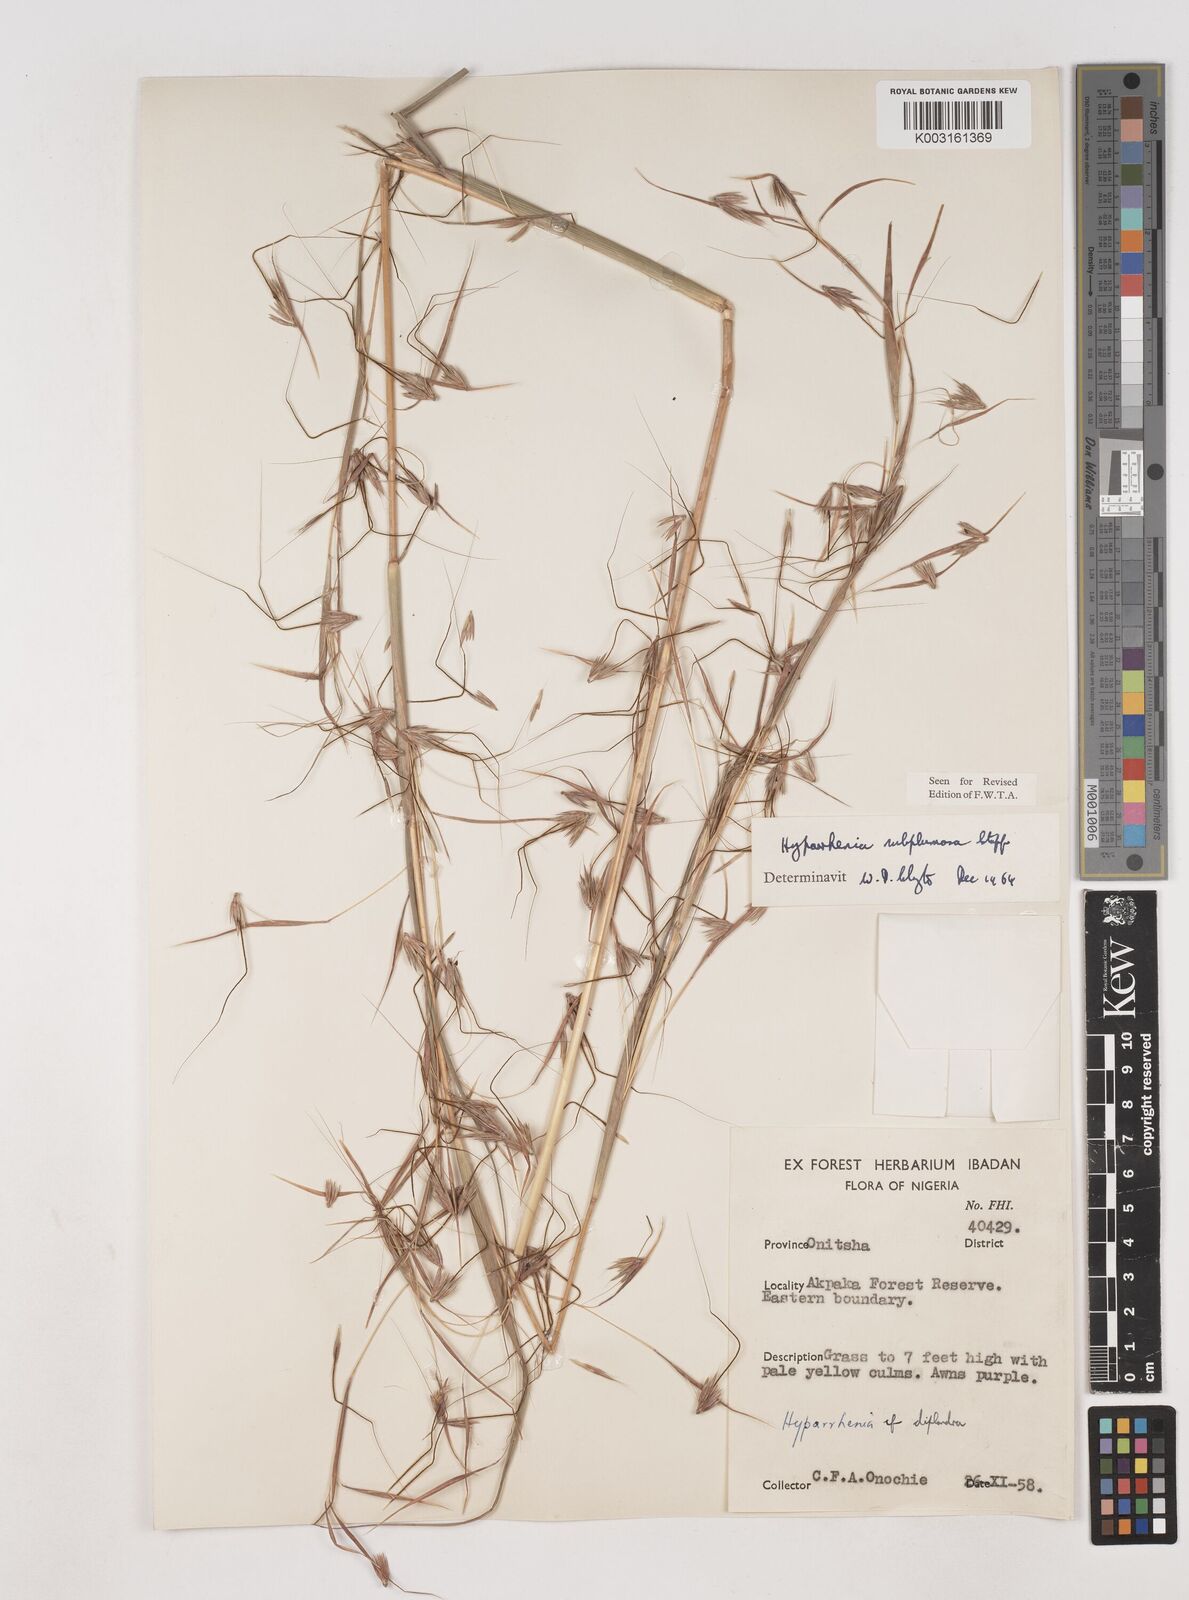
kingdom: Plantae
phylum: Tracheophyta
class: Liliopsida
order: Poales
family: Poaceae
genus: Hyparrhenia
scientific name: Hyparrhenia subplumosa
